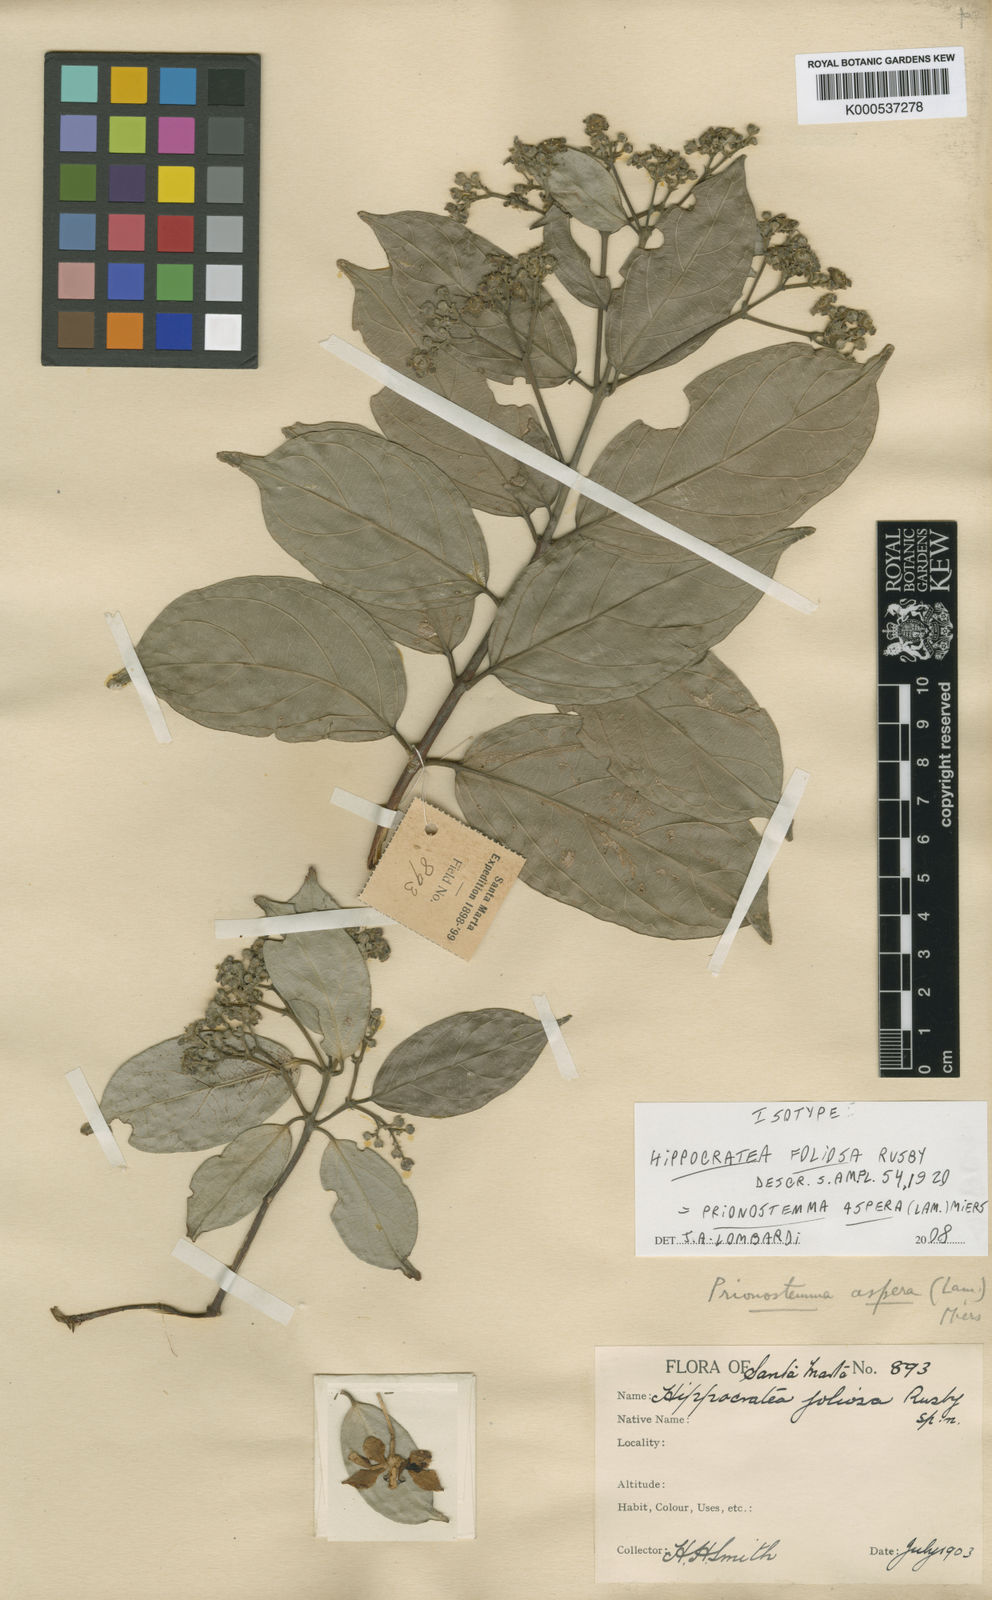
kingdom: Plantae
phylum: Tracheophyta
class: Magnoliopsida
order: Celastrales
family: Celastraceae
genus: Prionostemma
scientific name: Prionostemma aspera
